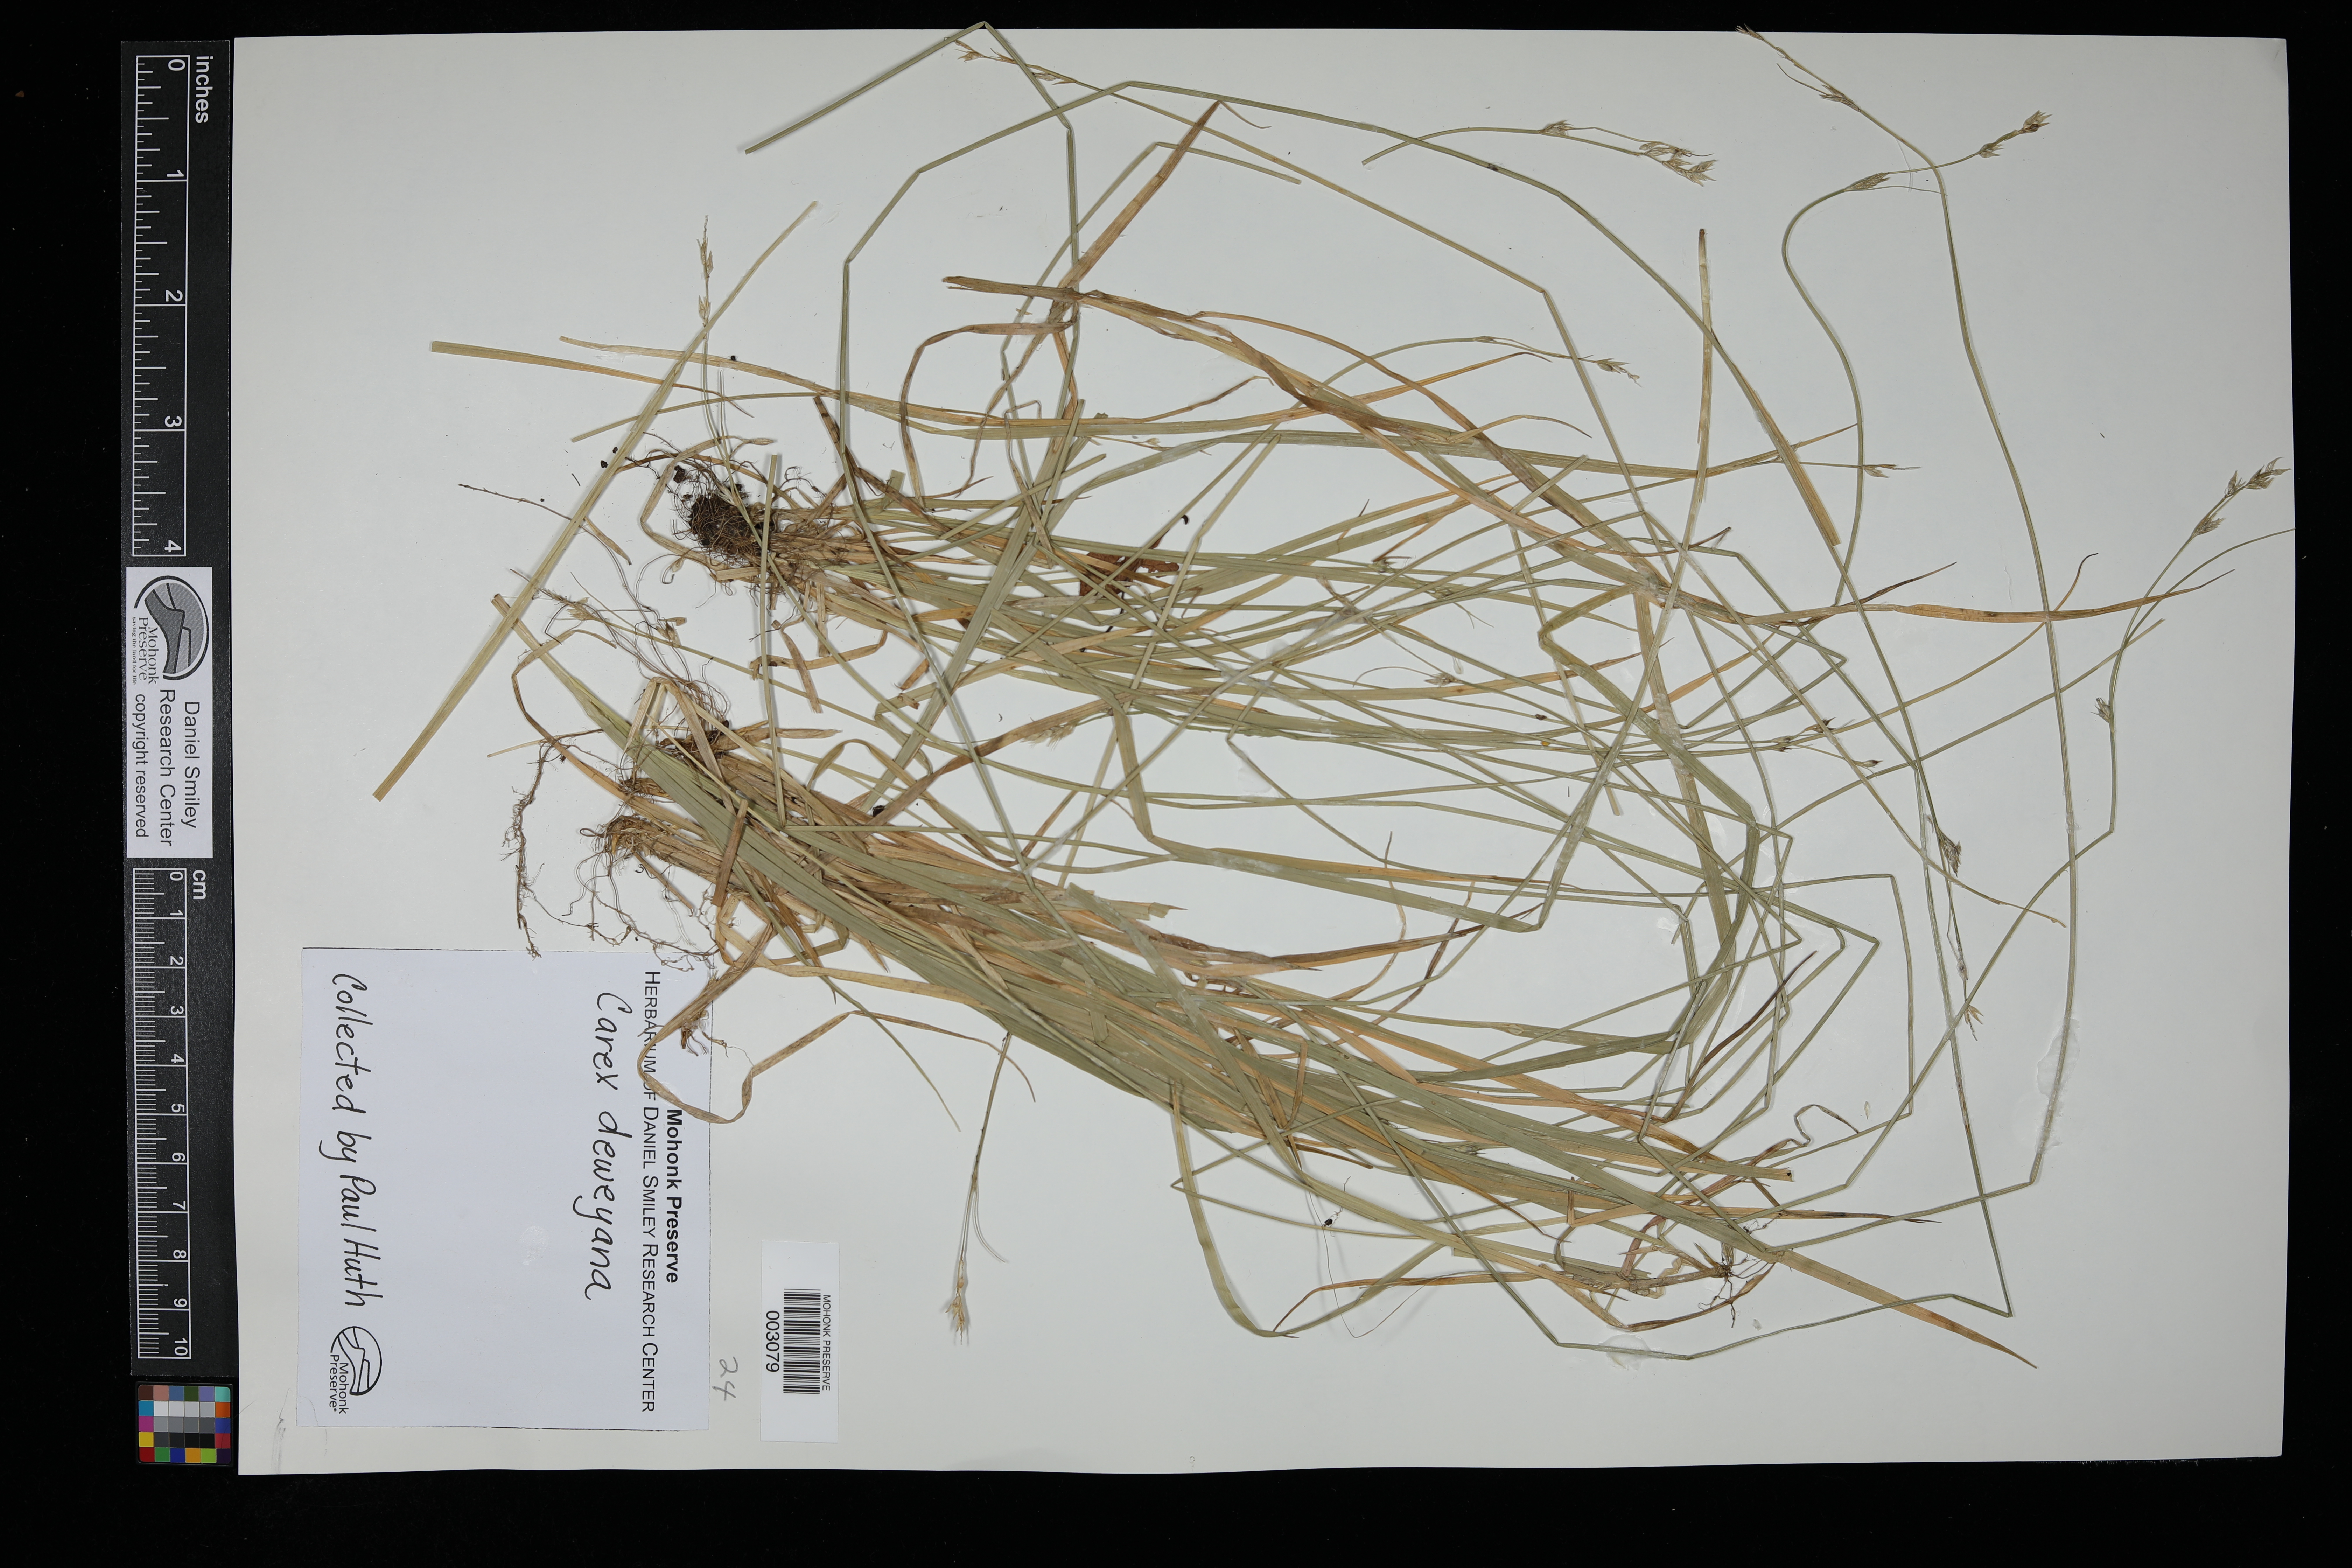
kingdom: Plantae
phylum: Tracheophyta
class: Liliopsida
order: Poales
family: Cyperaceae
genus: Carex
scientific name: Carex deweyana
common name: Dewey's sedge
